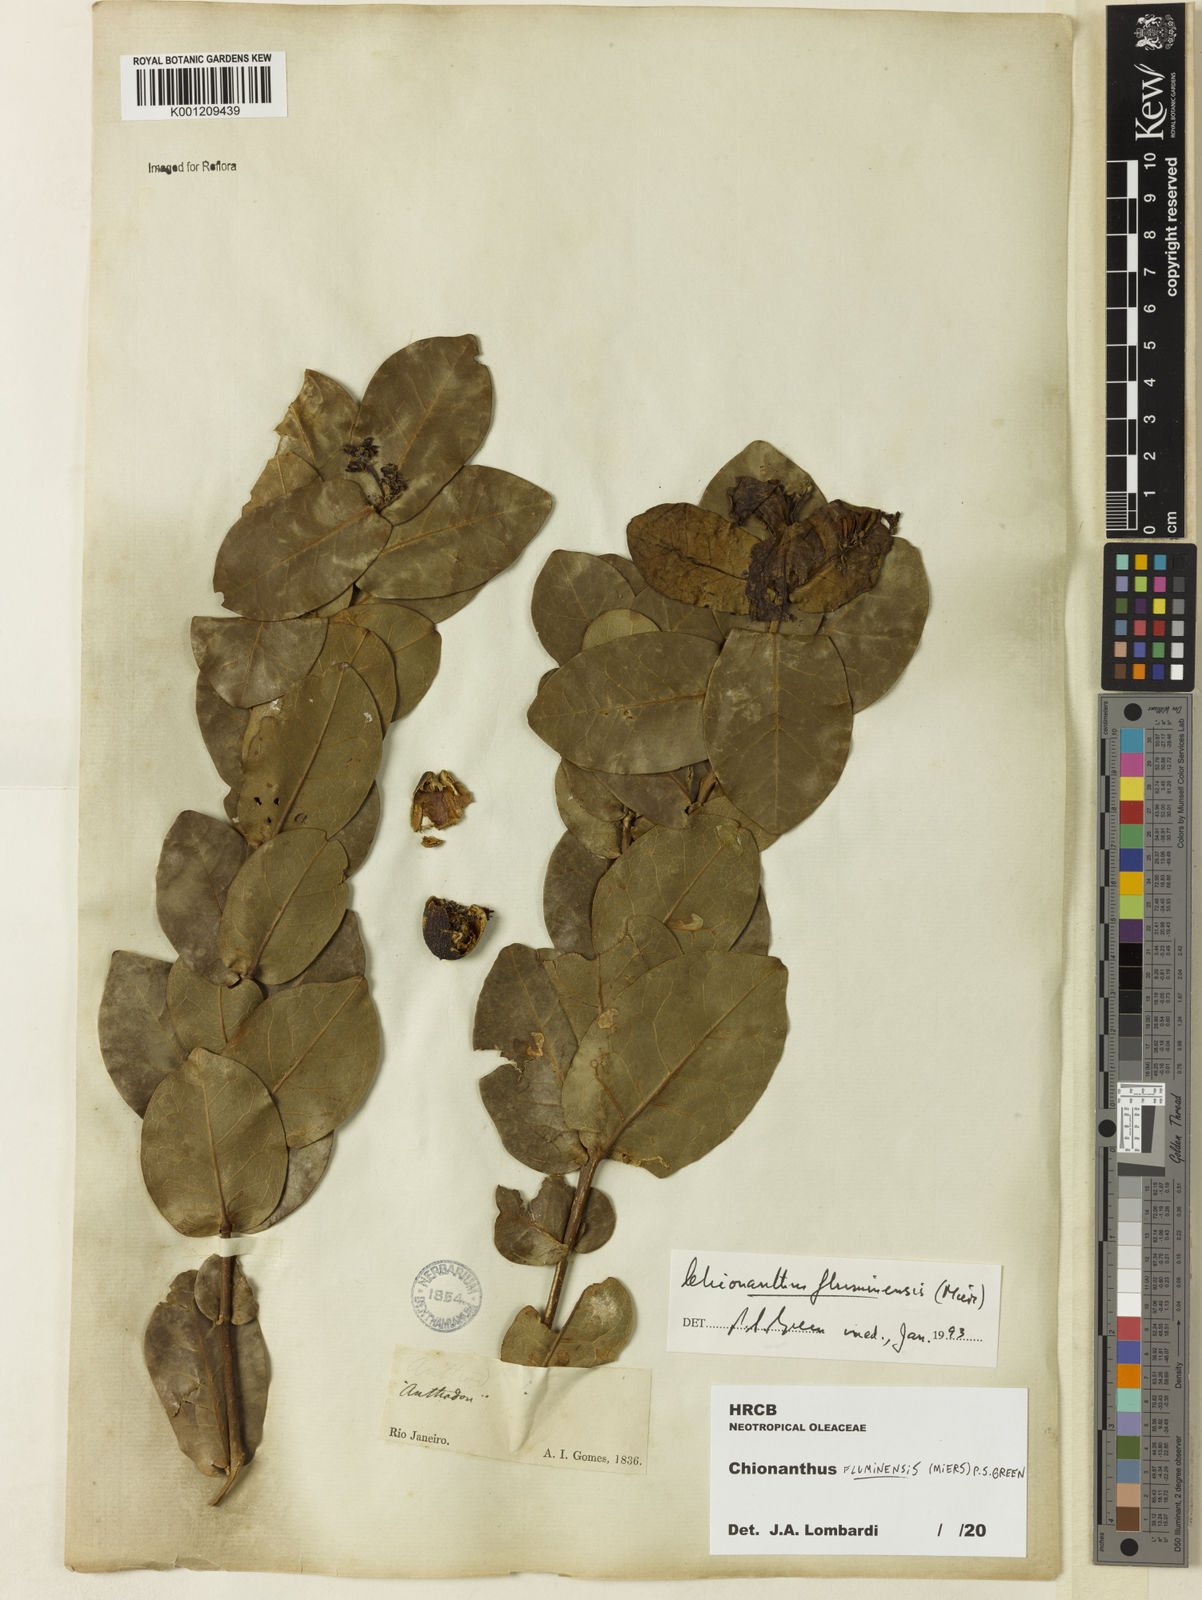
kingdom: Plantae
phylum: Tracheophyta
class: Magnoliopsida
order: Lamiales
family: Oleaceae
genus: Chionanthus
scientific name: Chionanthus fluminensis
